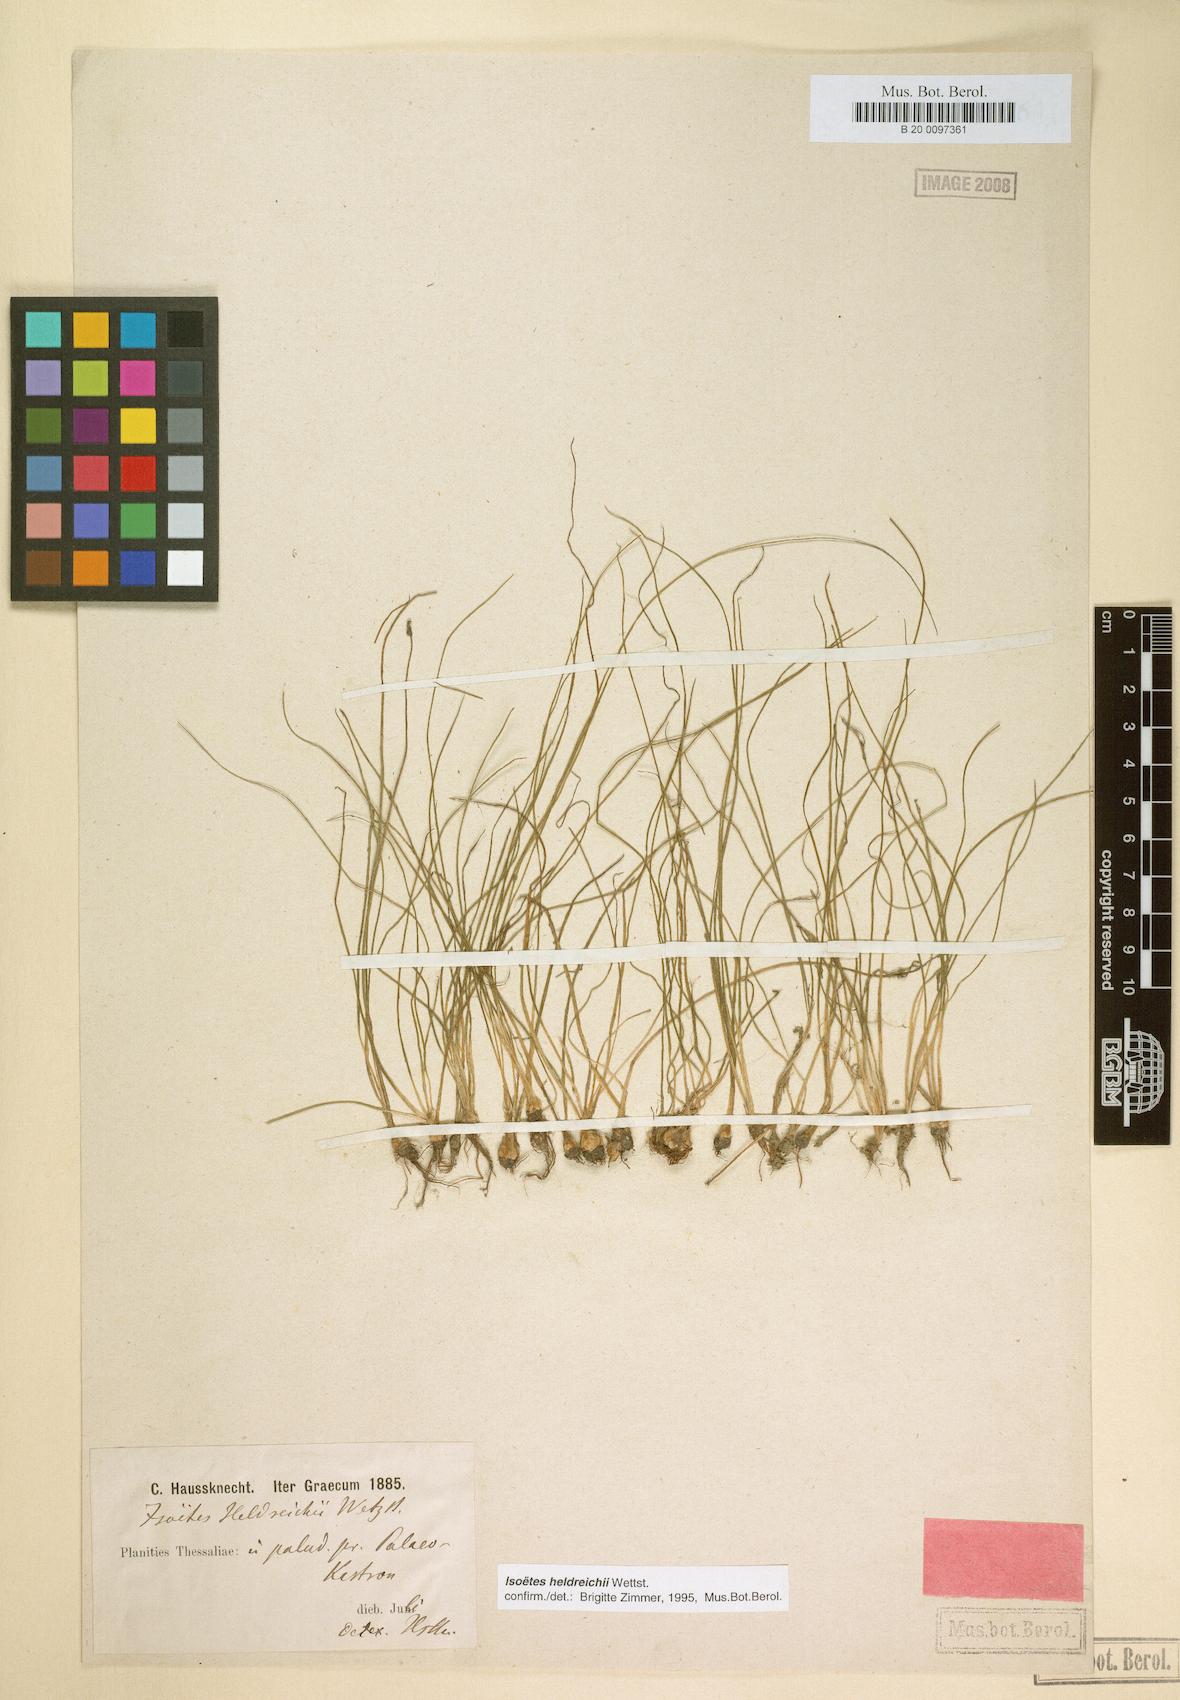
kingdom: Plantae
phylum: Tracheophyta
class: Lycopodiopsida
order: Isoetales
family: Isoetaceae
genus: Isoetes
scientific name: Isoetes heldreichii
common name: Pindus quillwort
